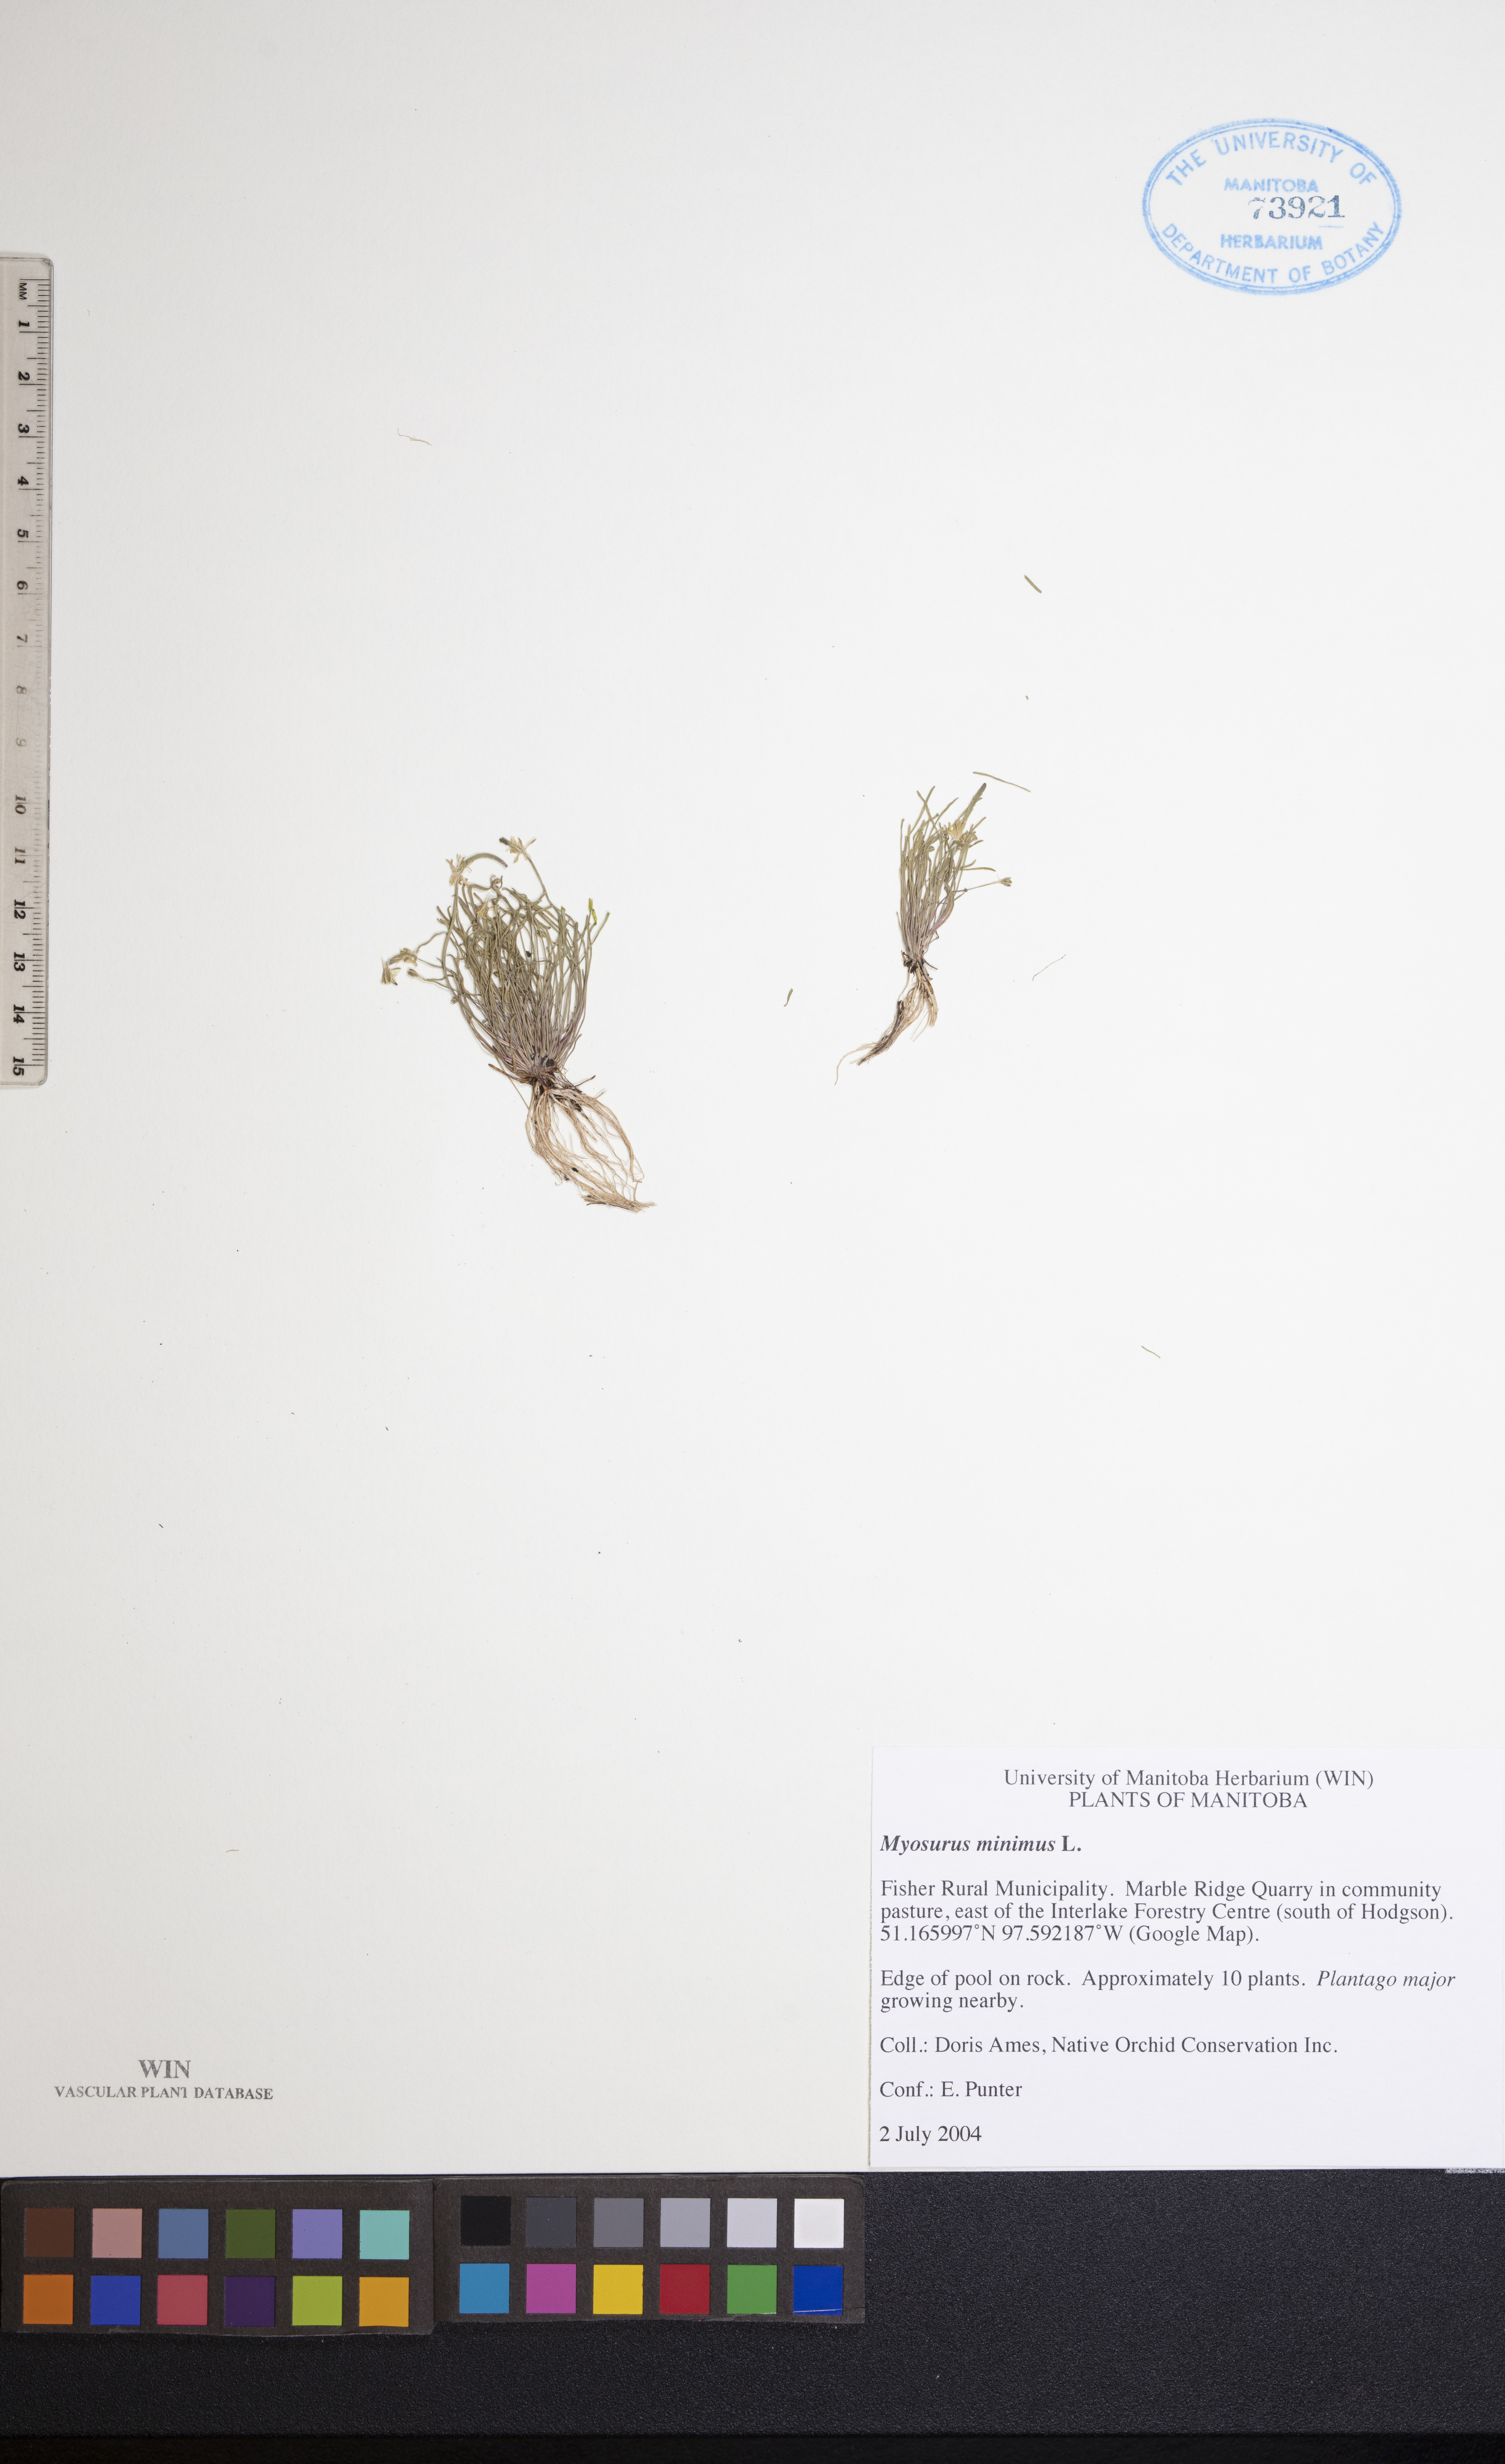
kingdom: Plantae
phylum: Tracheophyta
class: Magnoliopsida
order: Ranunculales
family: Ranunculaceae
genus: Myosurus
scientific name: Myosurus minimus
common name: Mousetail
